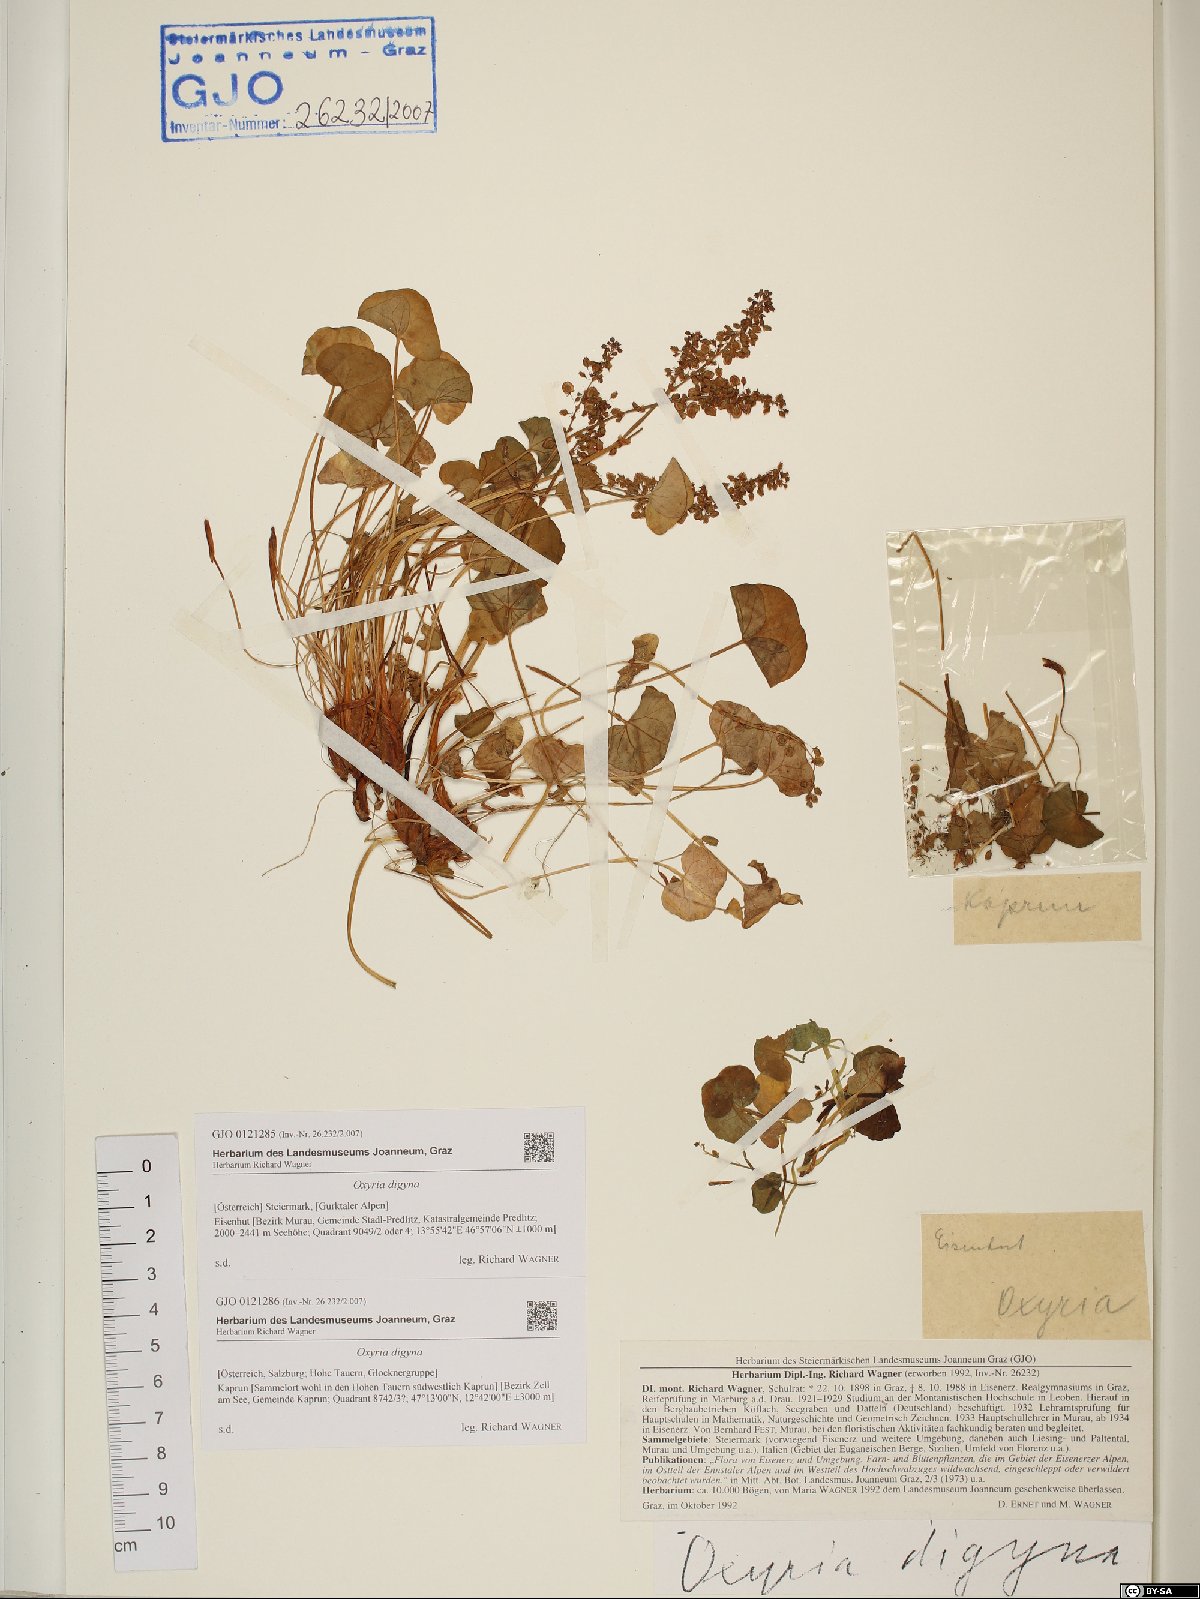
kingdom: Plantae
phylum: Tracheophyta
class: Magnoliopsida
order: Caryophyllales
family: Polygonaceae
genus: Oxyria
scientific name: Oxyria digyna
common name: Alpine mountain-sorrel
